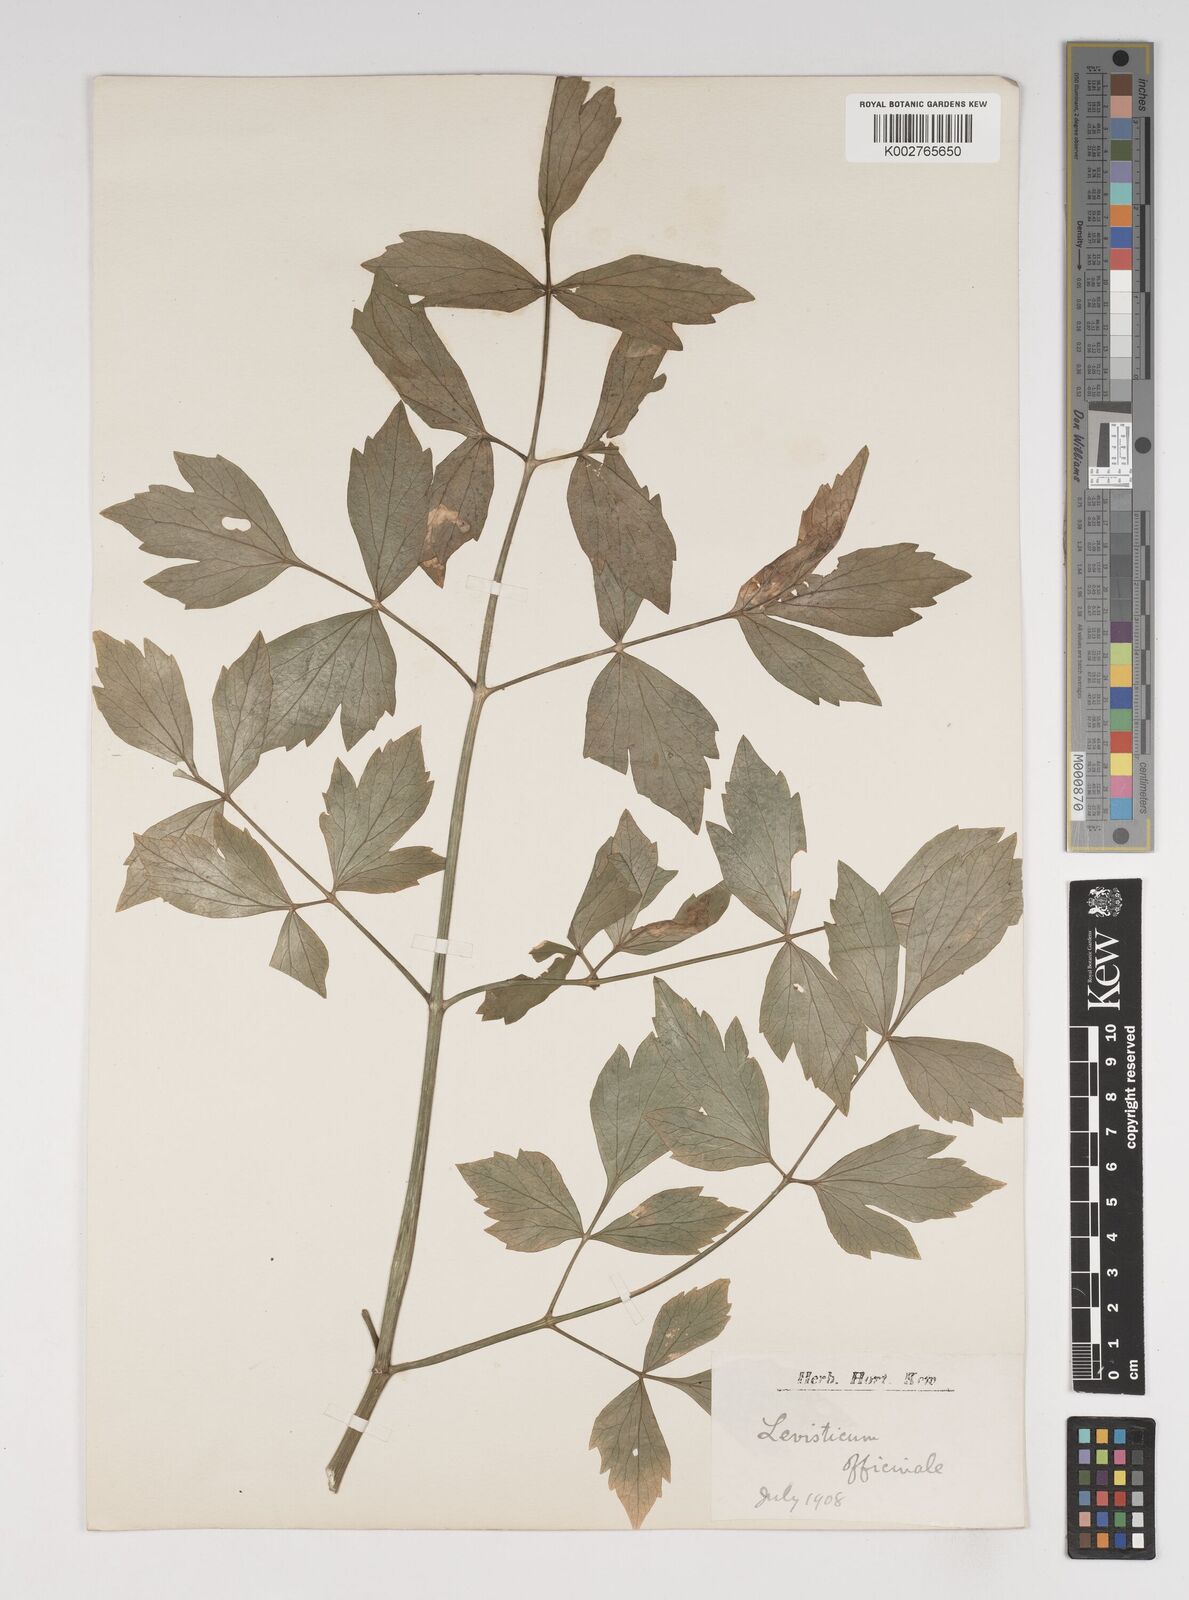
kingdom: Plantae
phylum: Tracheophyta
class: Magnoliopsida
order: Apiales
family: Apiaceae
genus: Levisticum
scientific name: Levisticum officinale
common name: Lovage
